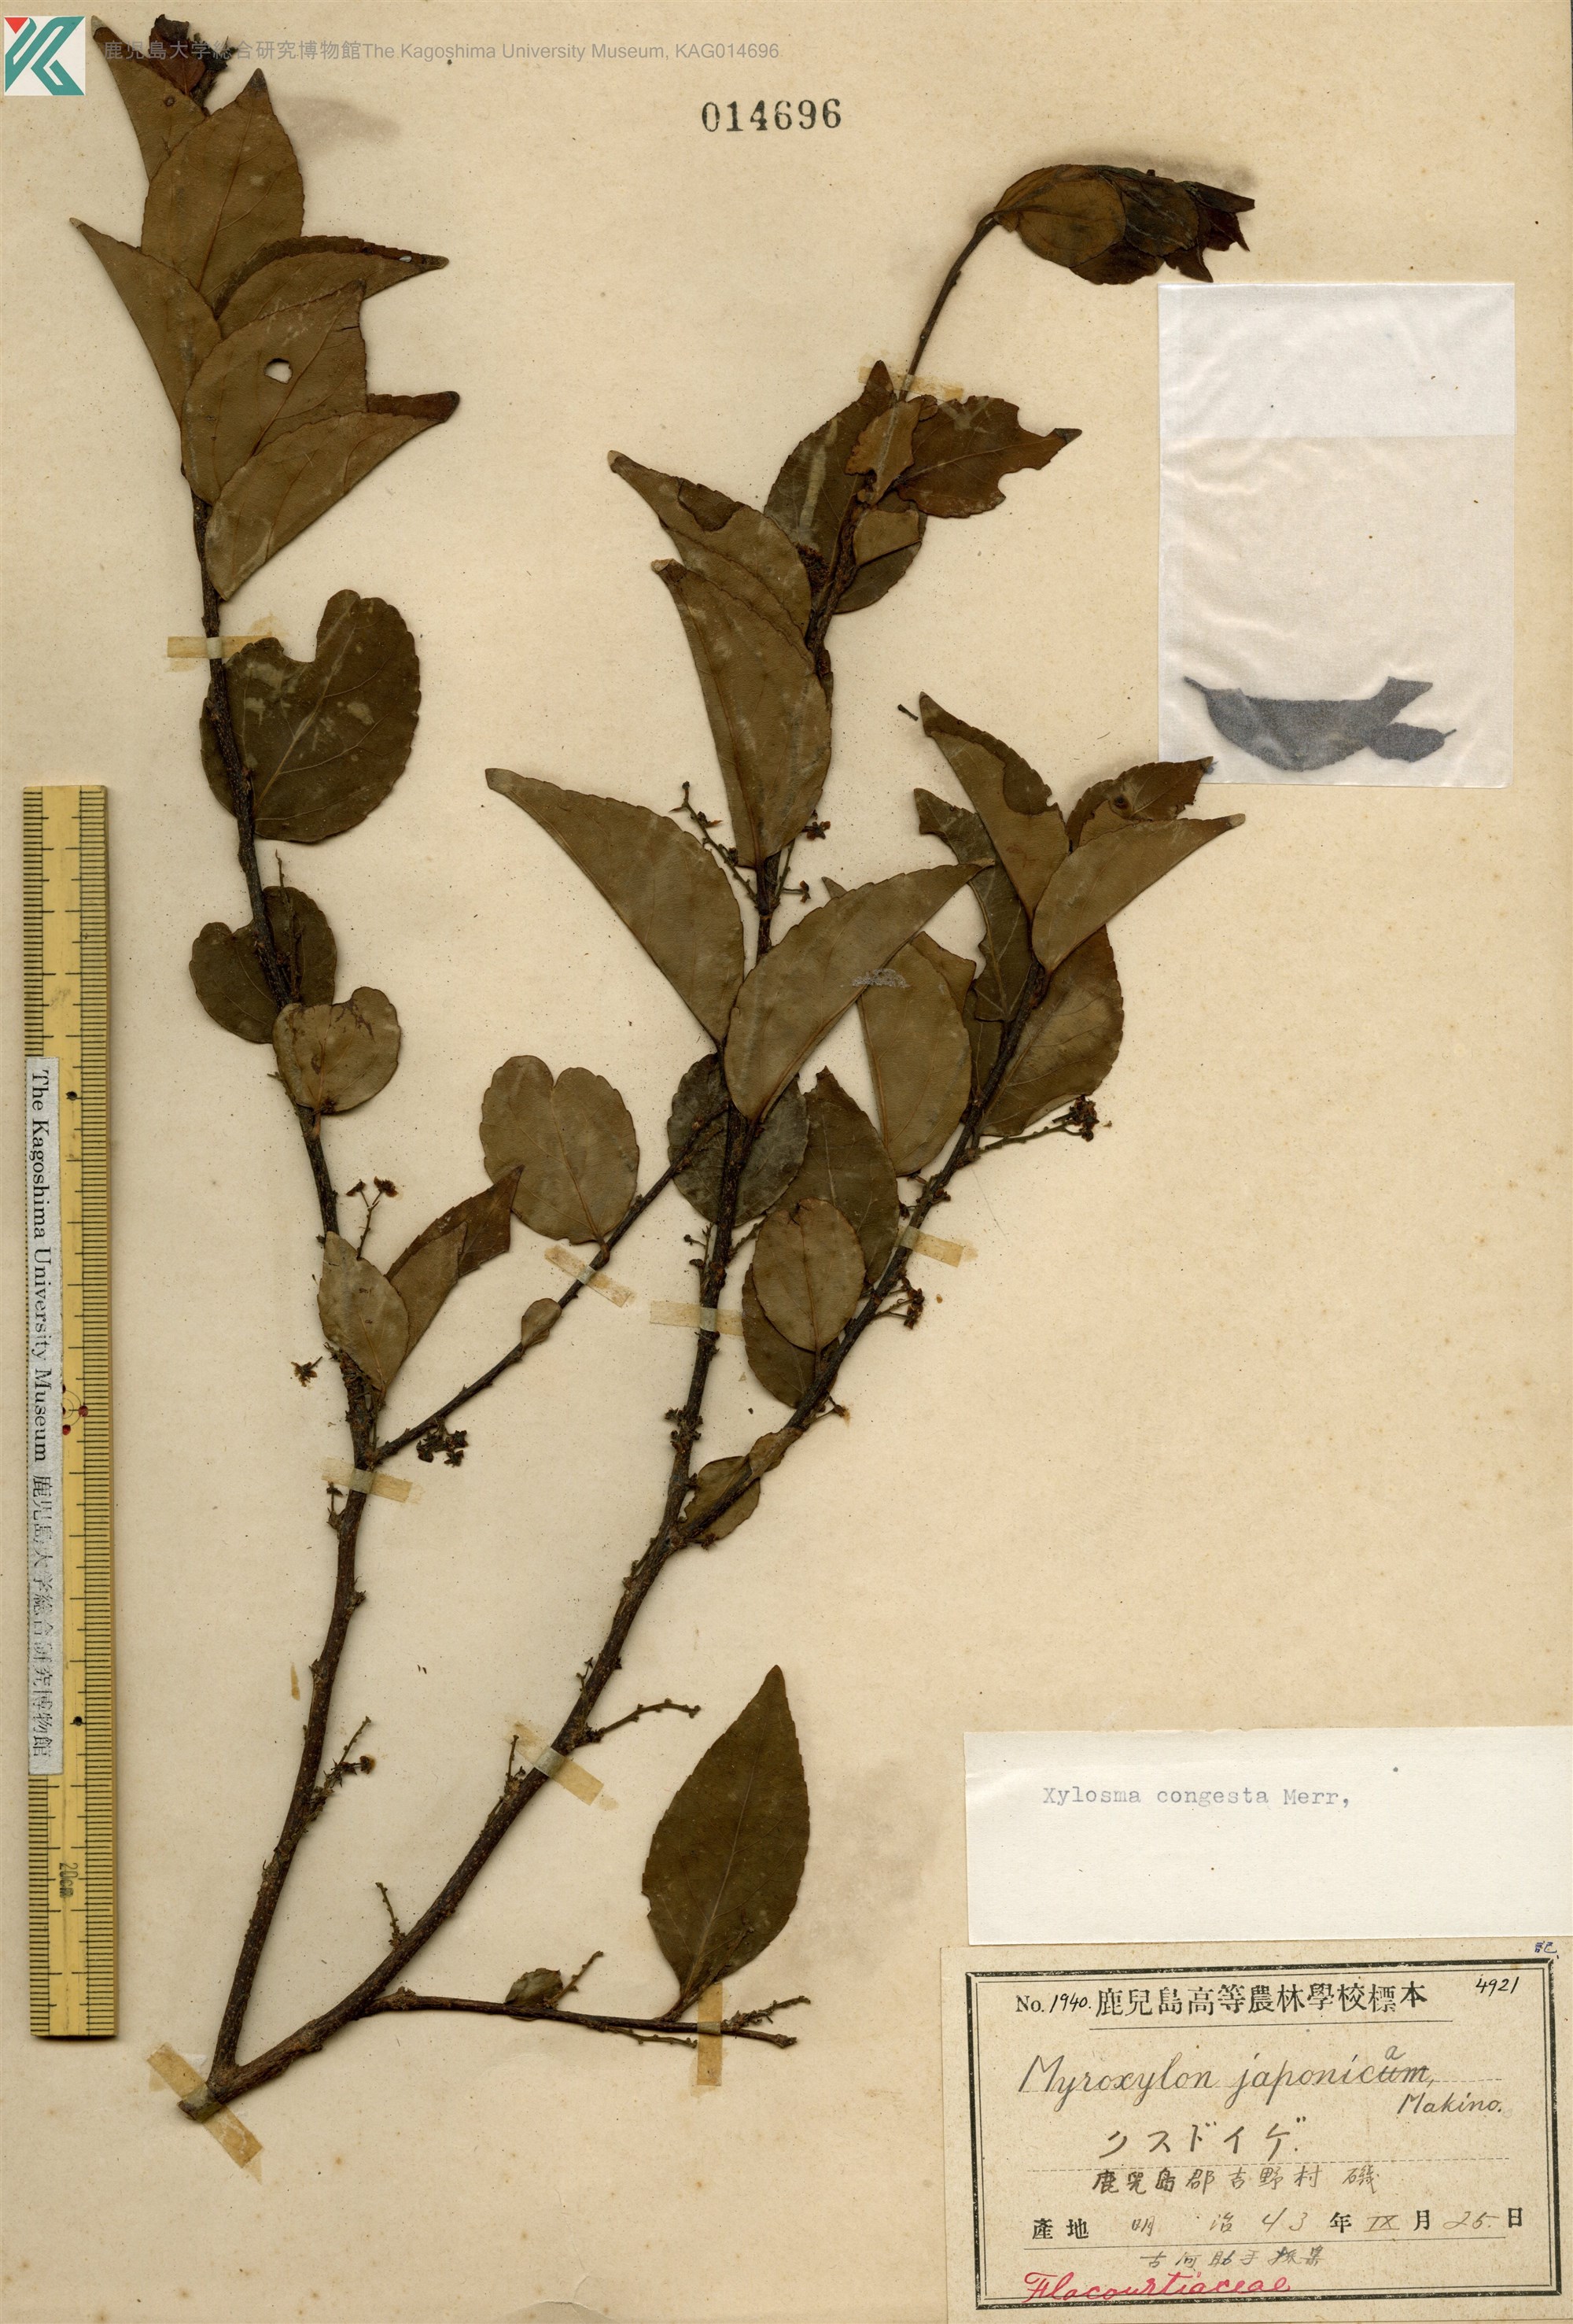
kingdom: Plantae
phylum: Tracheophyta
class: Magnoliopsida
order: Malpighiales
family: Salicaceae
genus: Xylosma
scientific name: Xylosma racemosum
